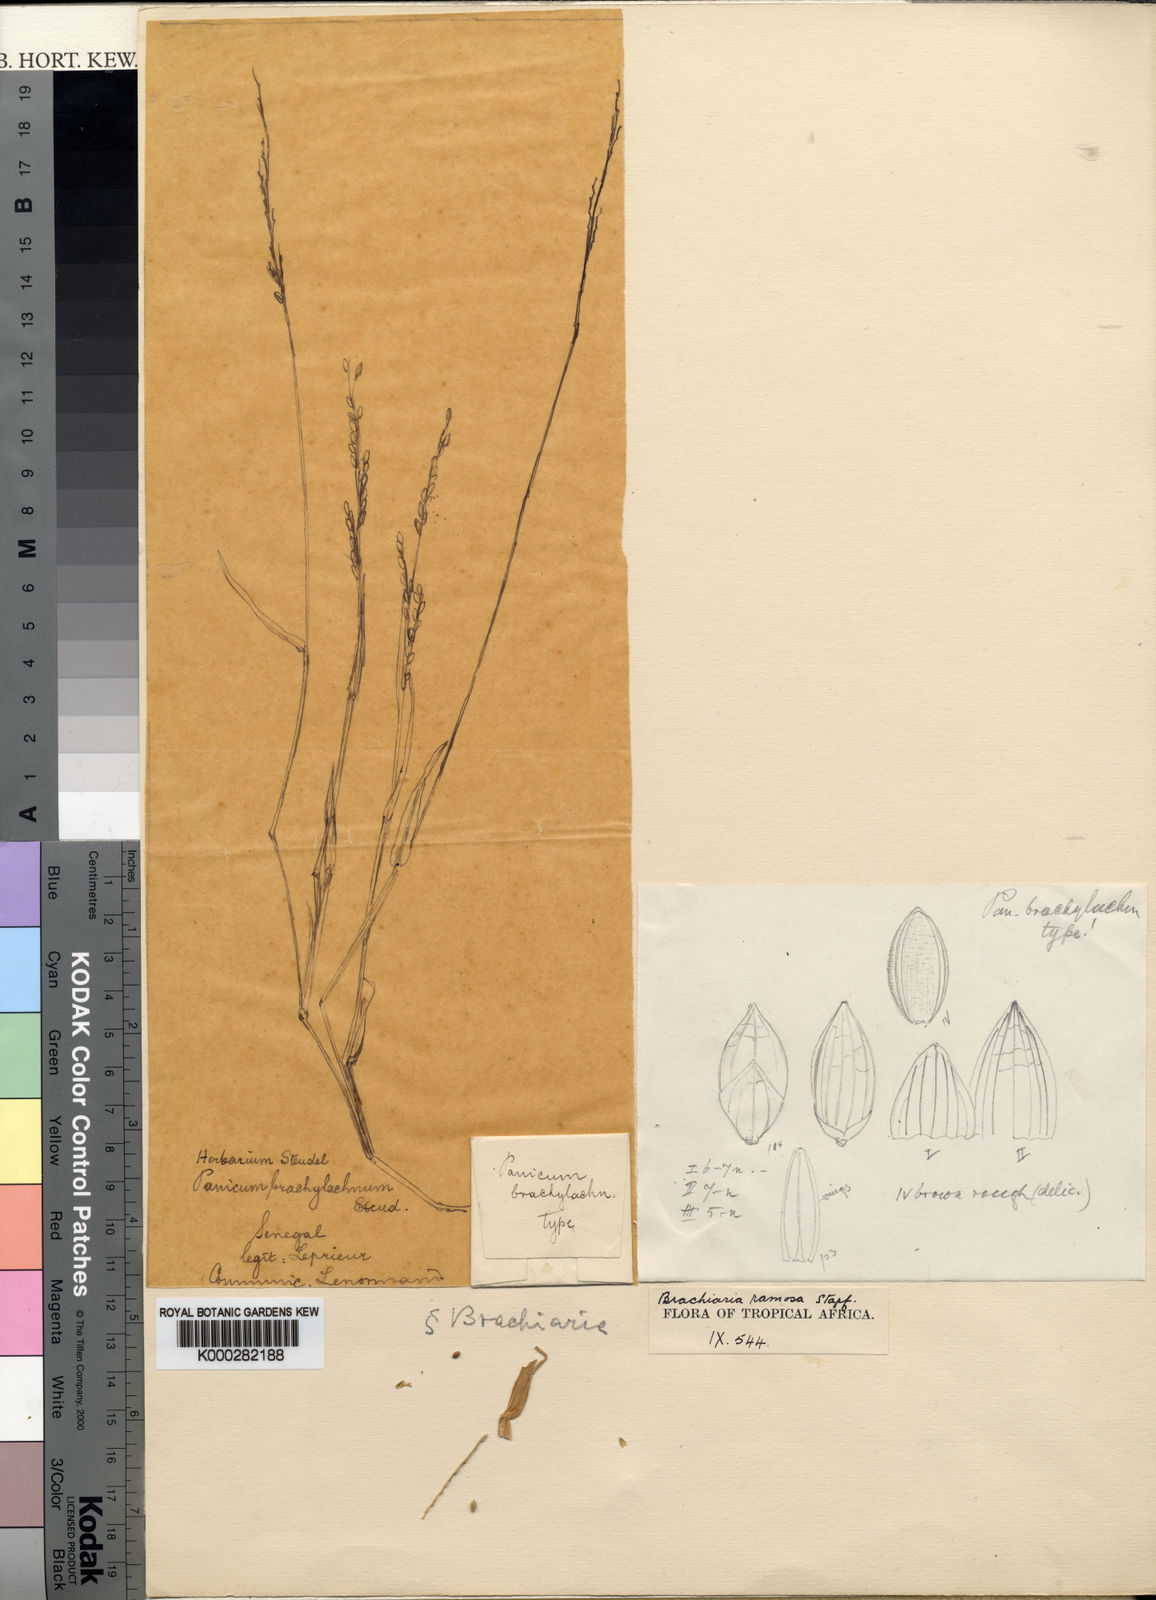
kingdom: Plantae
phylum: Tracheophyta
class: Liliopsida
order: Poales
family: Poaceae
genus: Urochloa
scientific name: Urochloa ramosa
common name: Browntop millet
